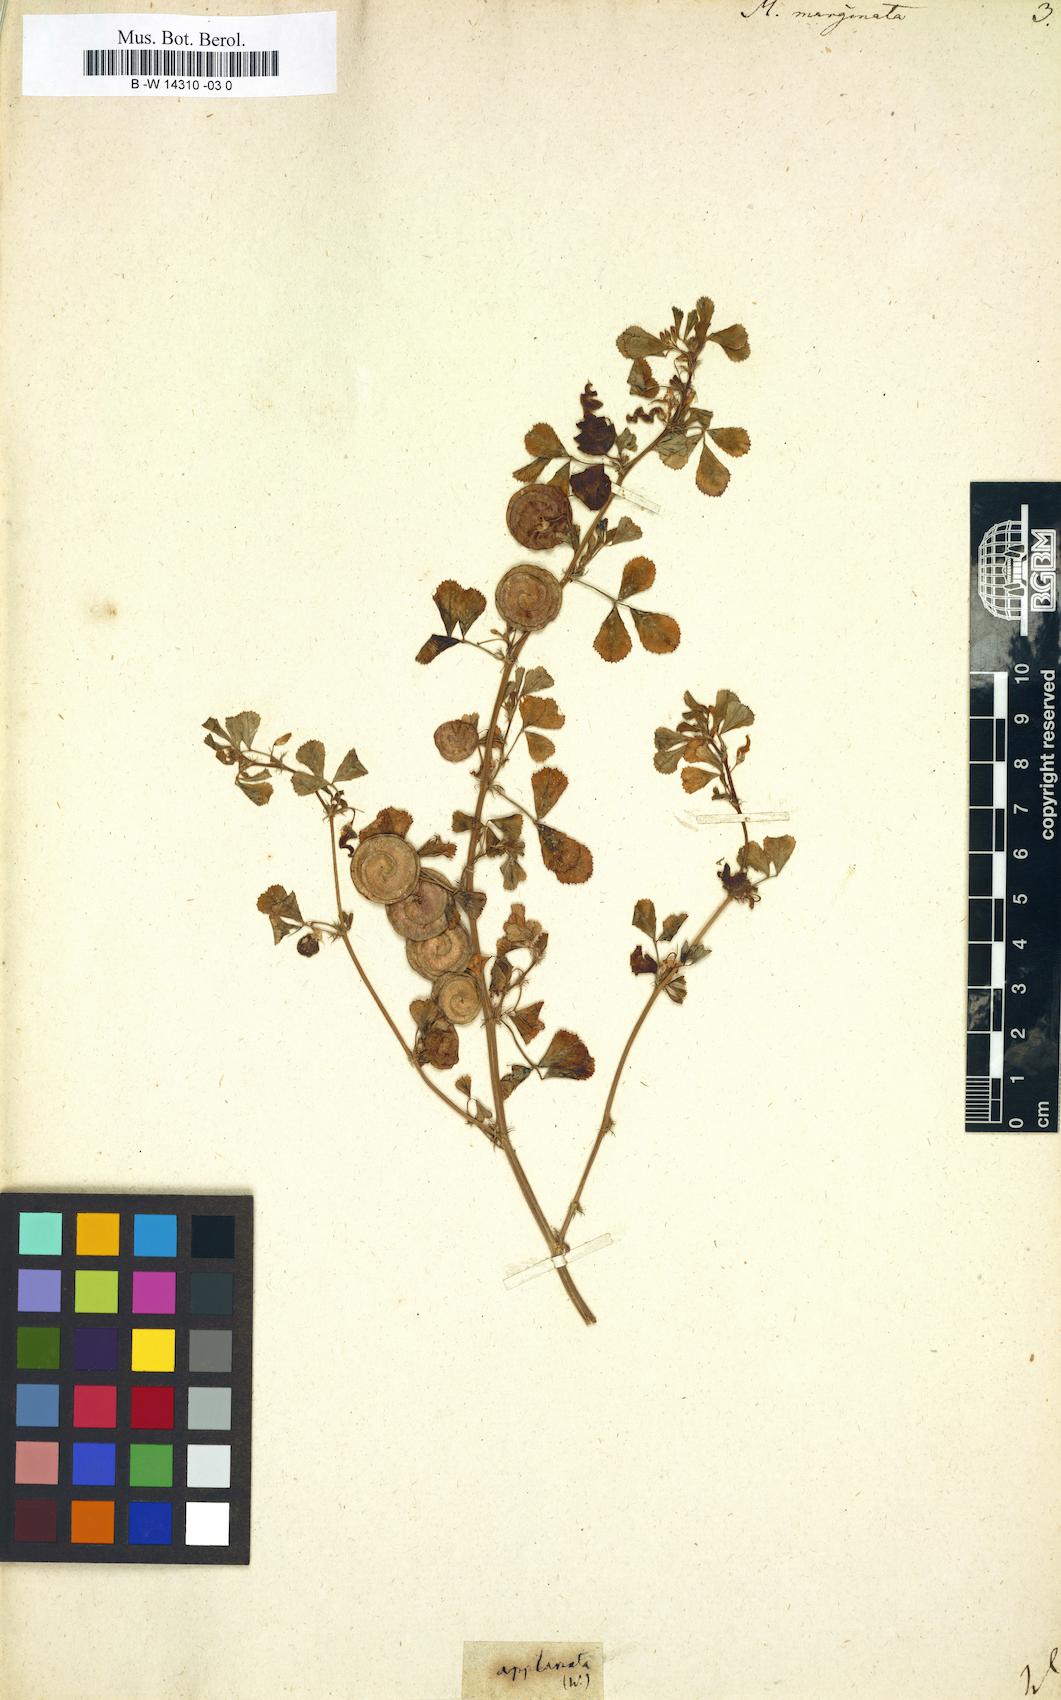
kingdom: Plantae
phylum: Tracheophyta
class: Magnoliopsida
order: Fabales
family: Fabaceae
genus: Medicago
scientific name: Medicago orbicularis
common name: Button medick
